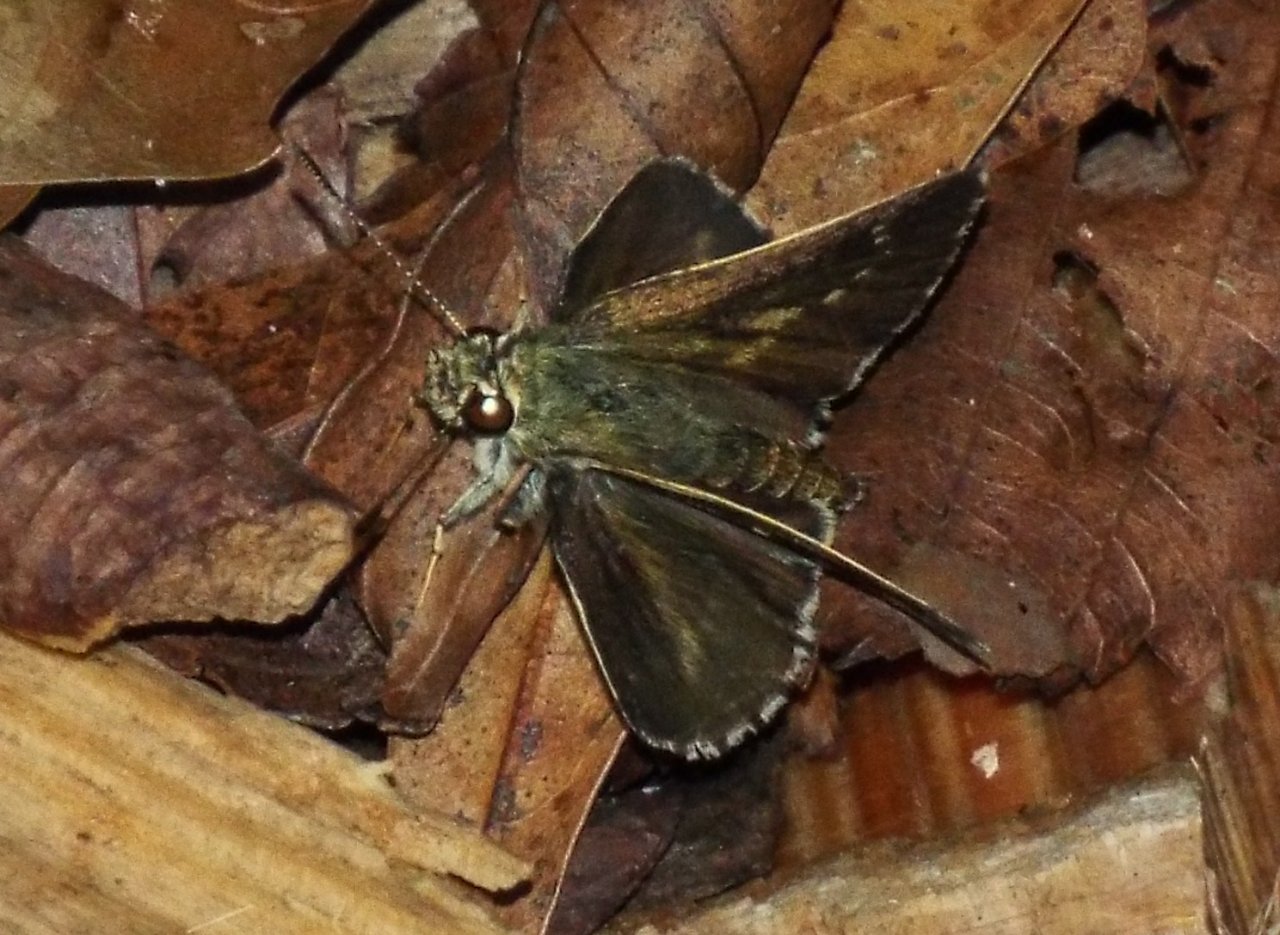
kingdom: Animalia
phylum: Arthropoda
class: Insecta
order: Lepidoptera
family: Hesperiidae
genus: Mastor
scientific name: Mastor aesculapius
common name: Lace-winged Roadside-Skipper
